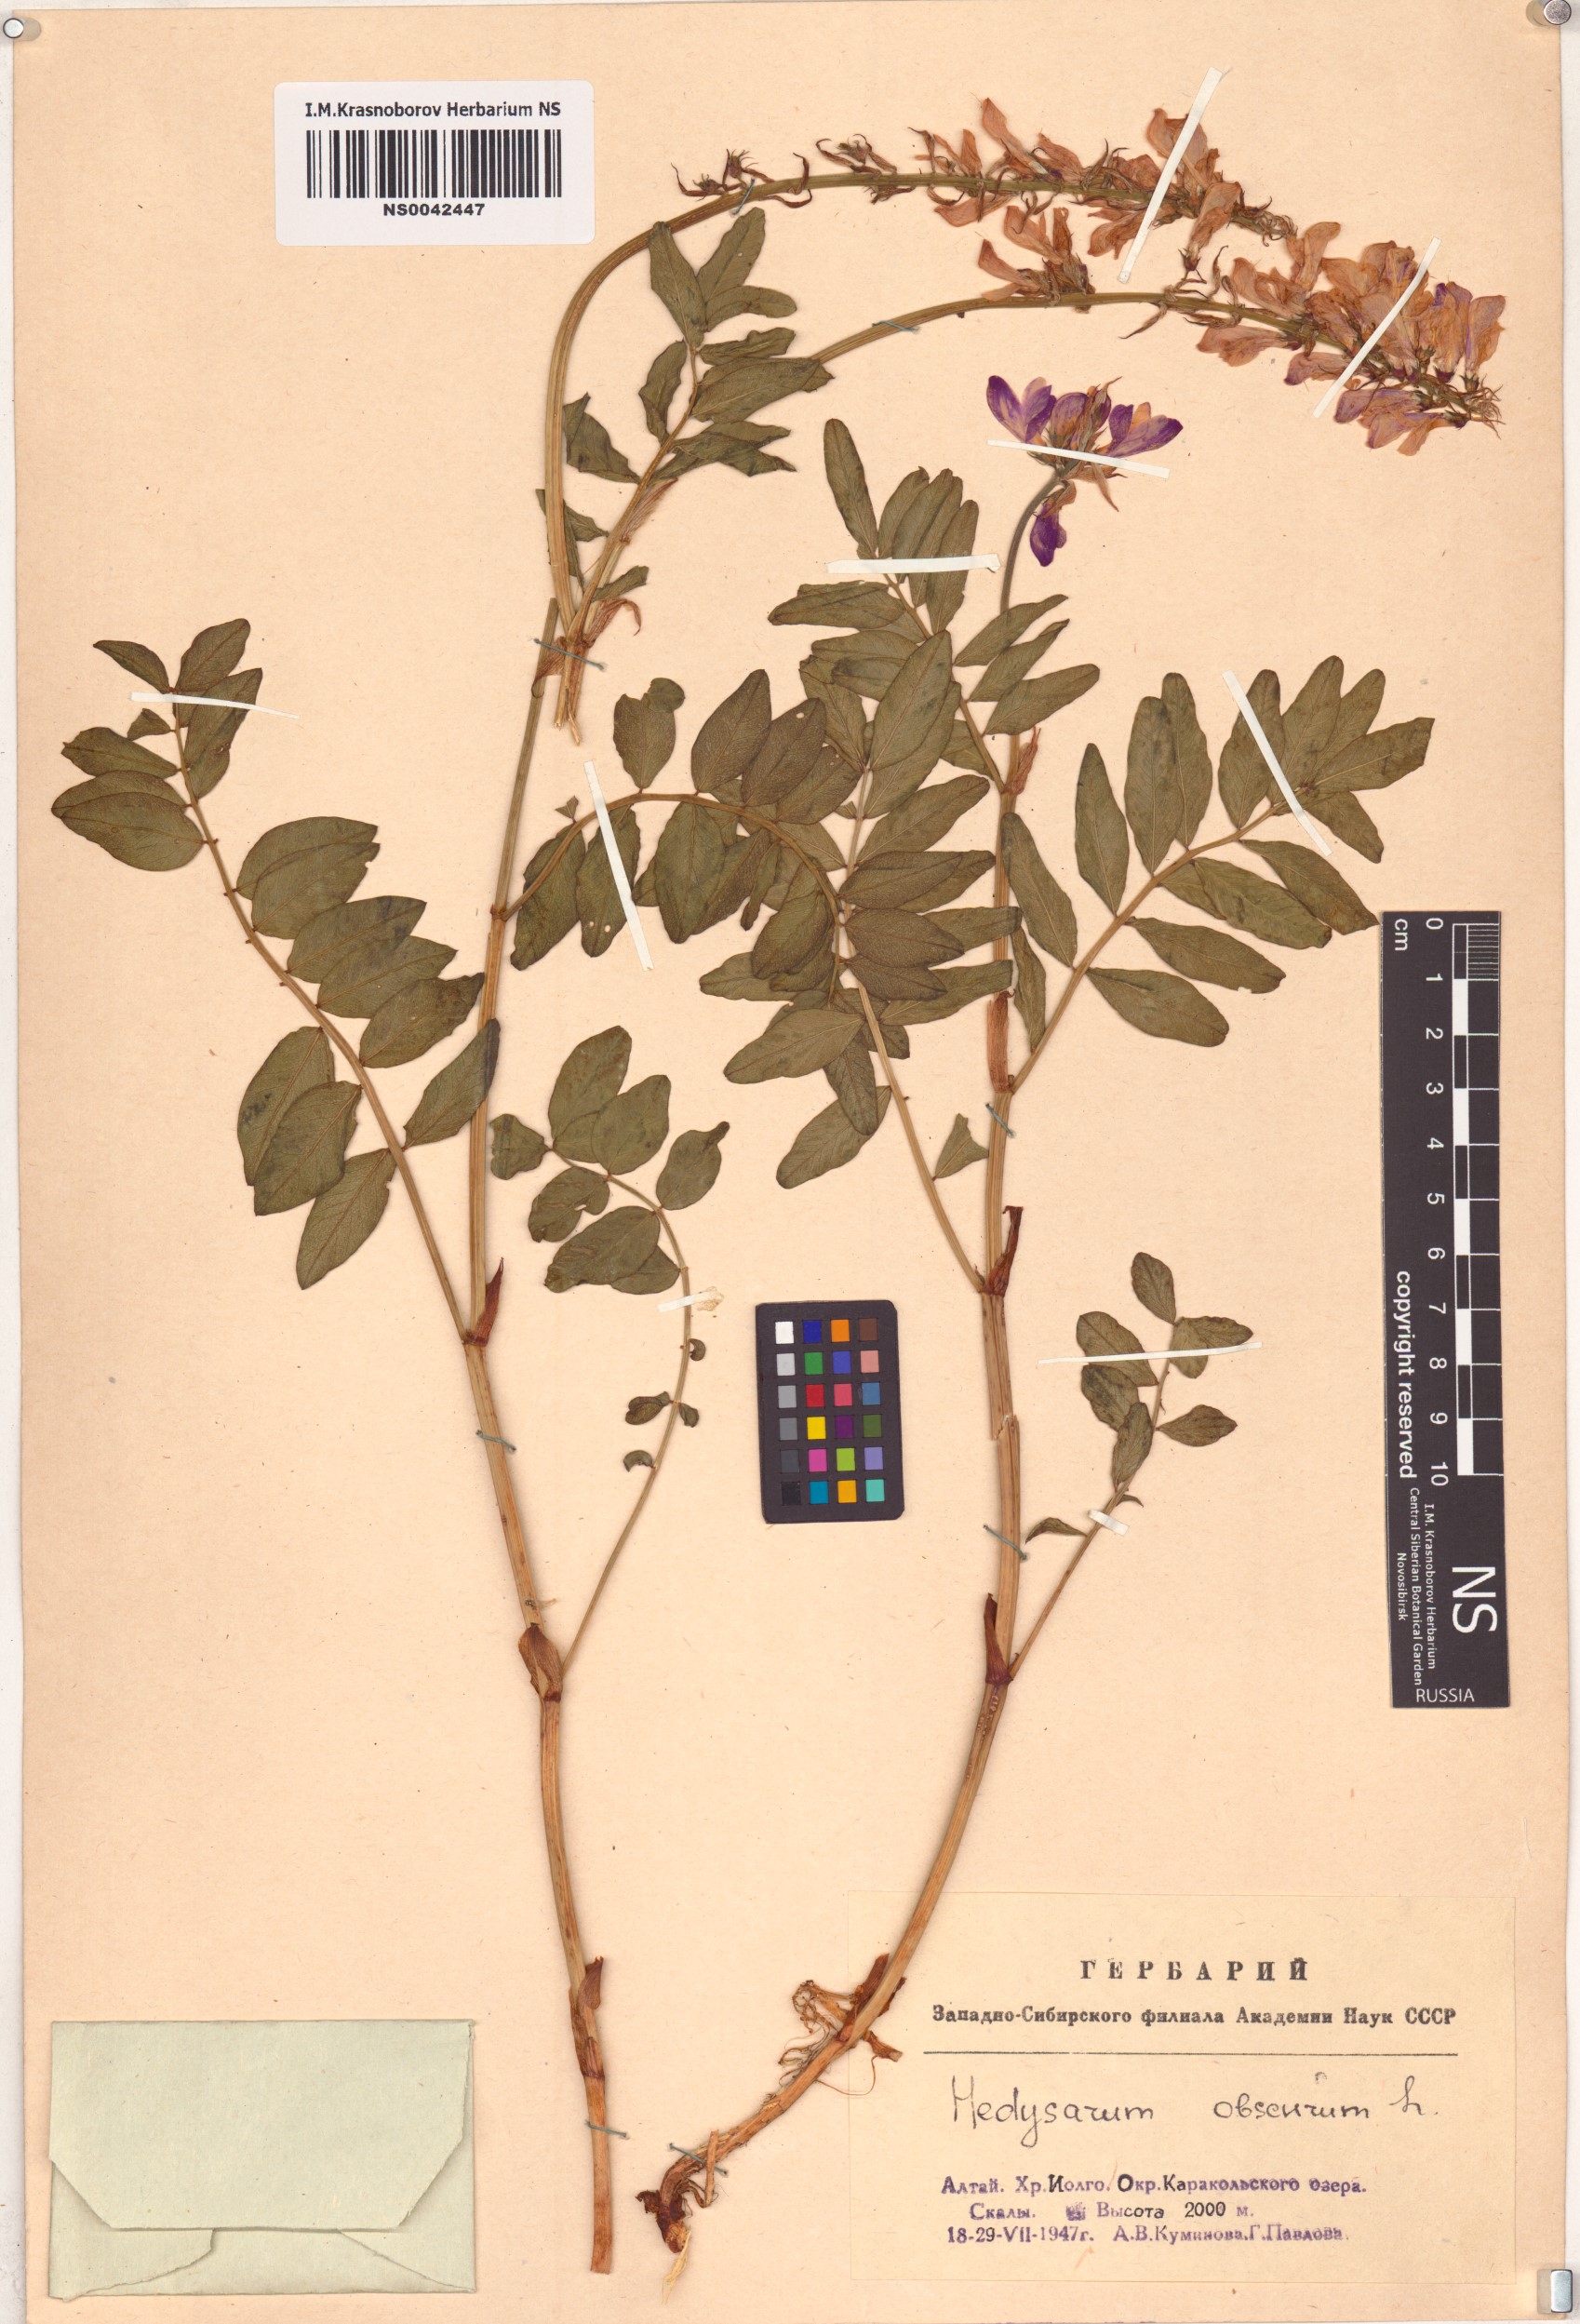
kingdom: Plantae
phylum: Tracheophyta
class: Magnoliopsida
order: Fabales
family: Fabaceae
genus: Hedysarum
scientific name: Hedysarum hedysaroides
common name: Alpine french-honeysuckle
